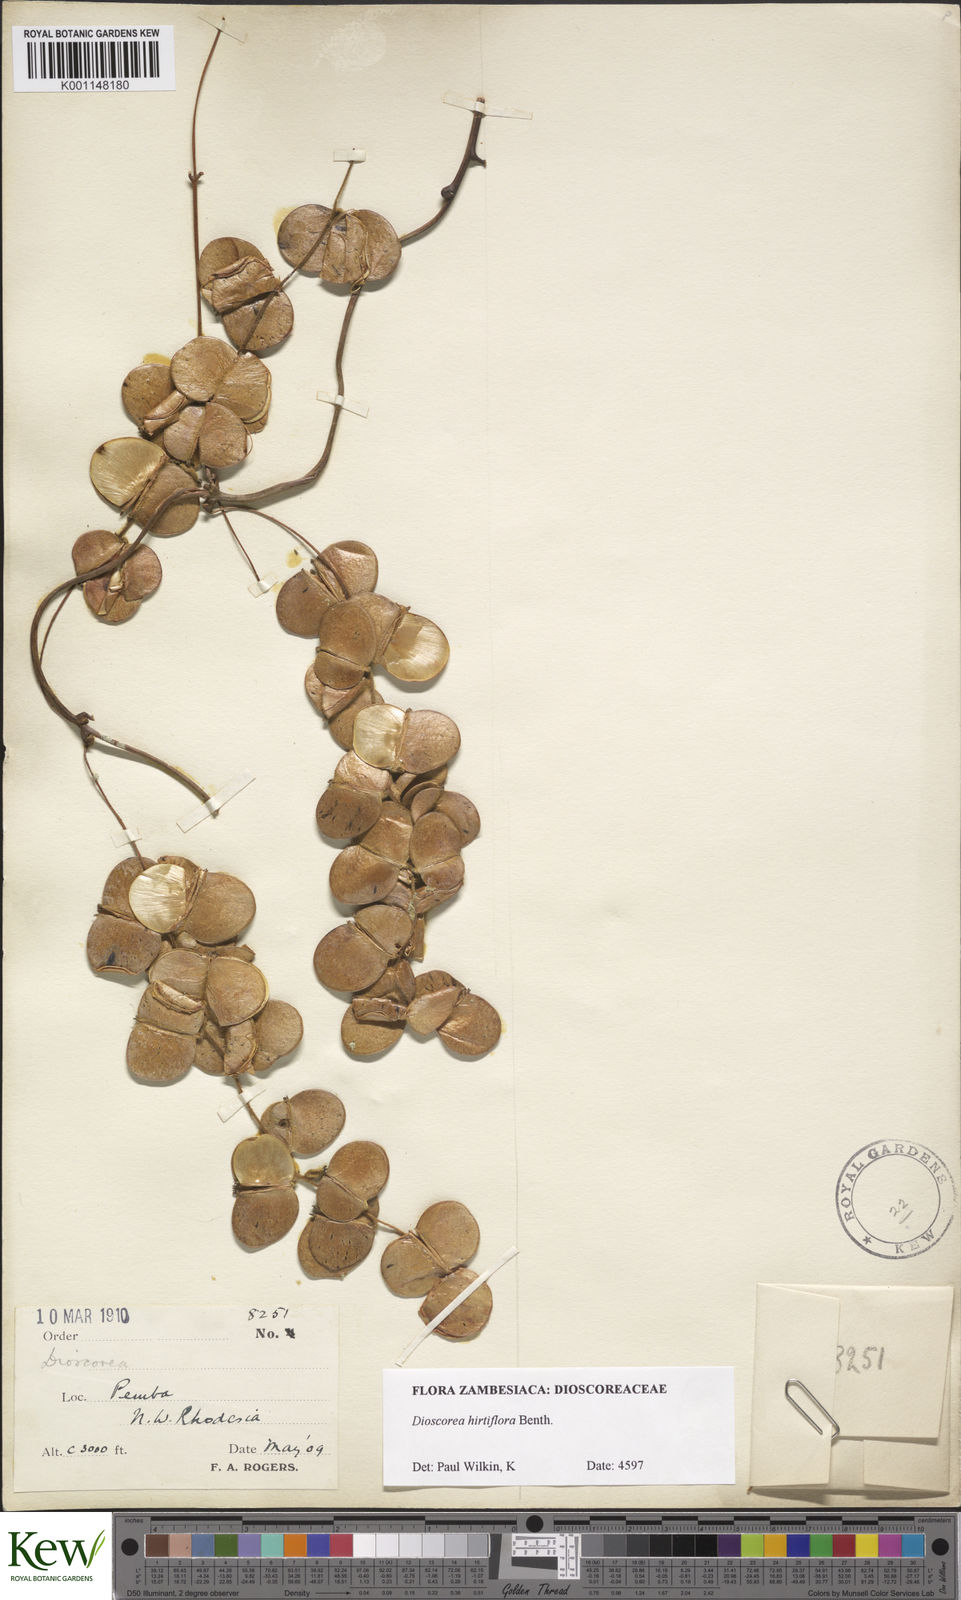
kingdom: Plantae
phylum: Tracheophyta
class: Liliopsida
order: Dioscoreales
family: Dioscoreaceae
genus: Dioscorea
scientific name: Dioscorea hirtiflora
